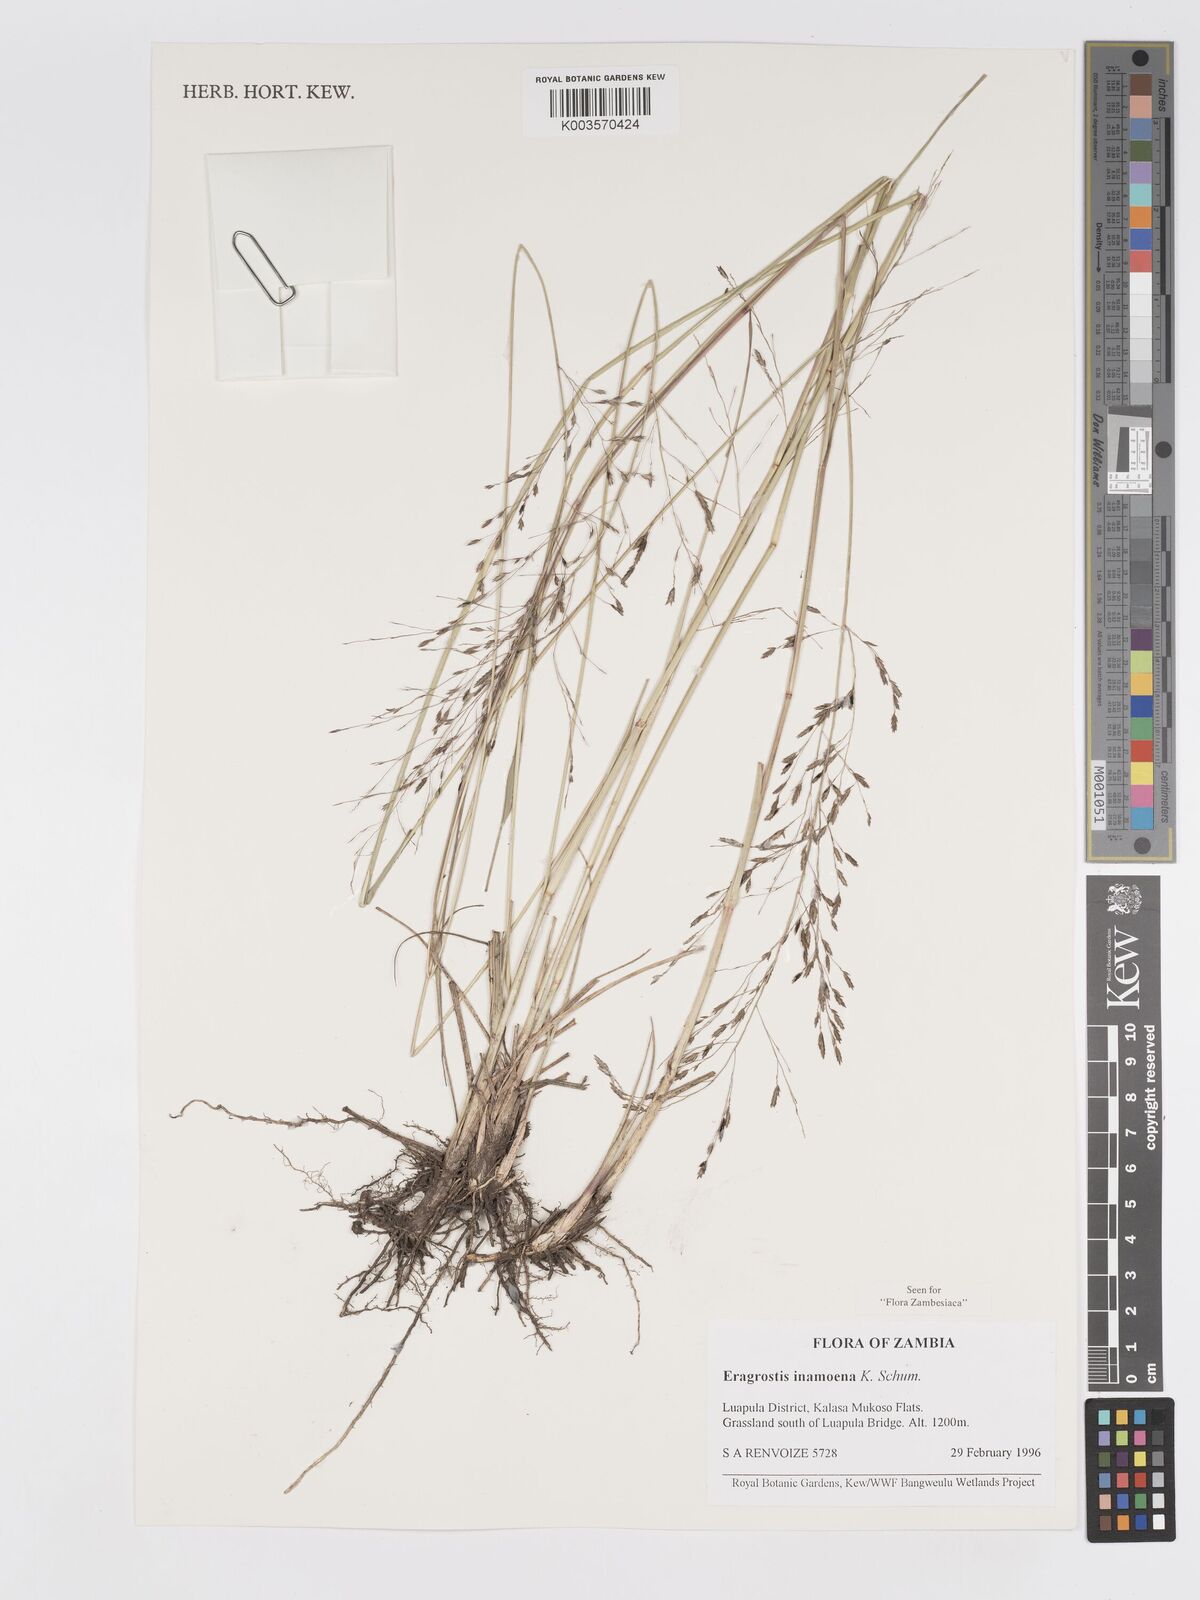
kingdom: Plantae
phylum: Tracheophyta
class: Liliopsida
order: Poales
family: Poaceae
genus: Eragrostis
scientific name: Eragrostis inamoena
